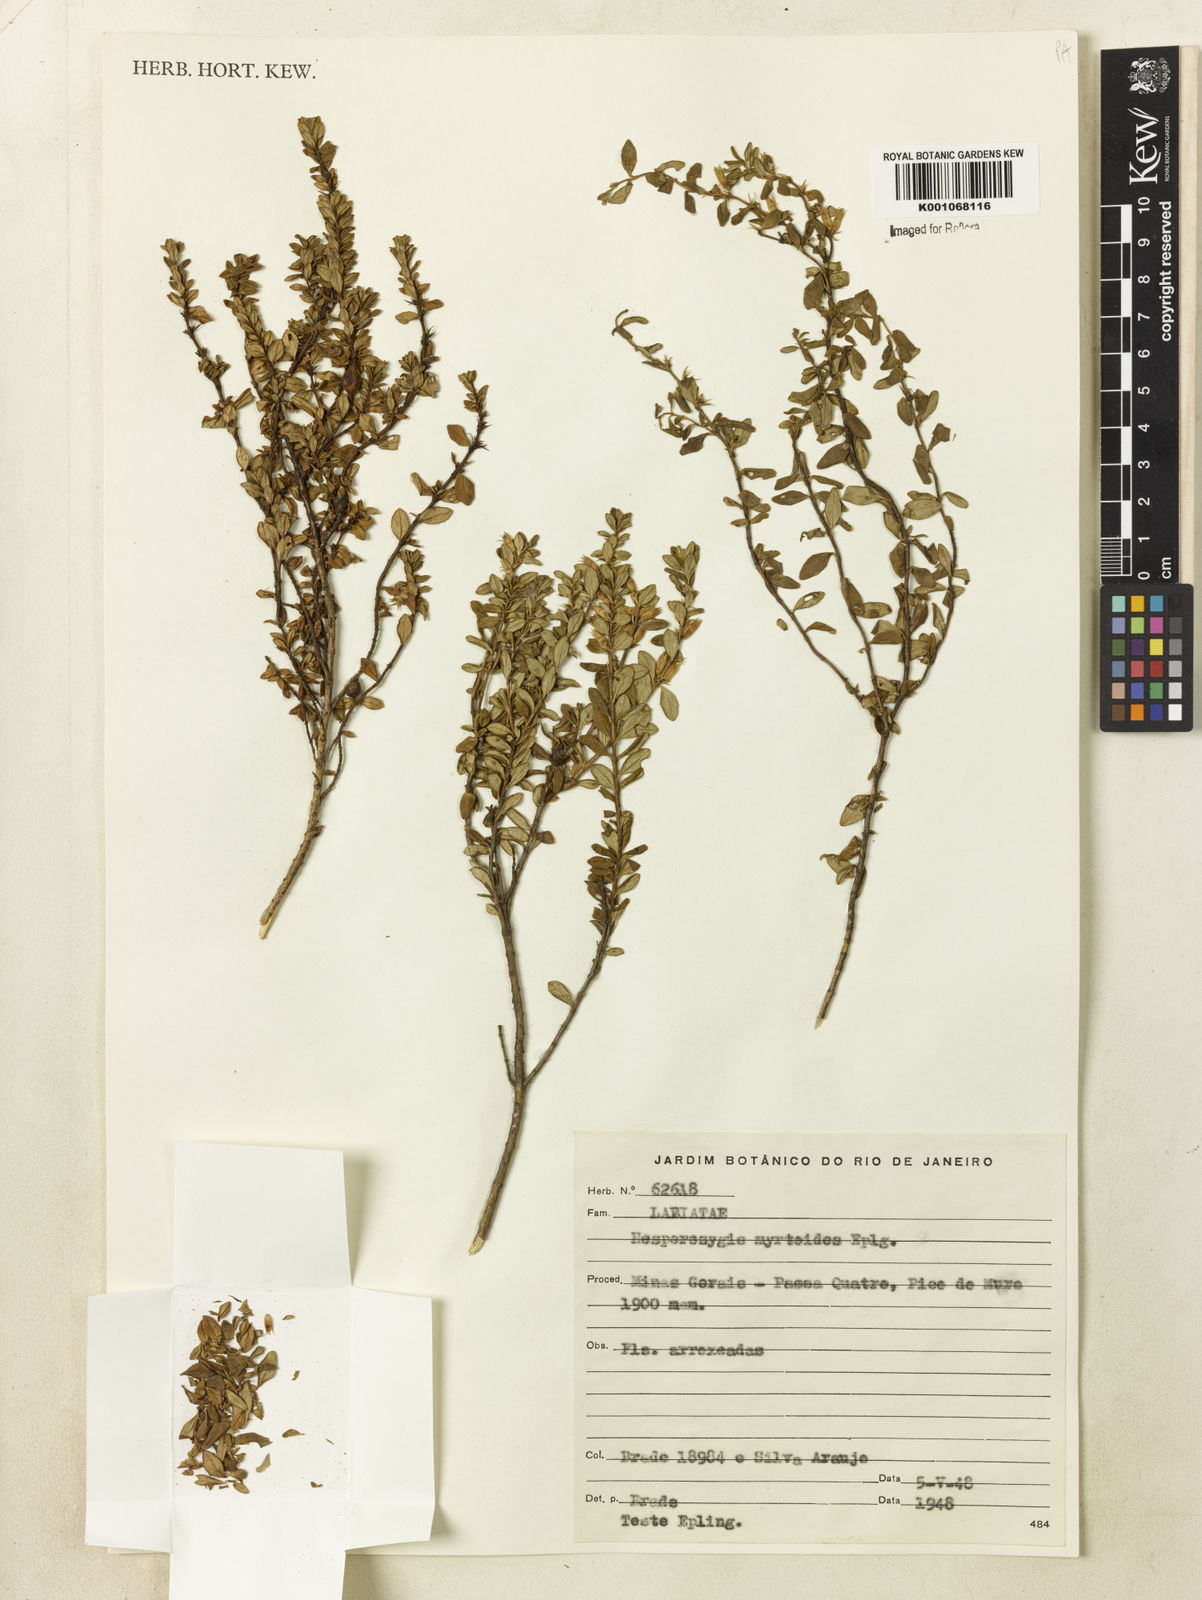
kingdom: Plantae
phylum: Tracheophyta
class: Magnoliopsida
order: Lamiales
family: Lamiaceae
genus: Hesperozygis
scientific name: Hesperozygis myrtoides
